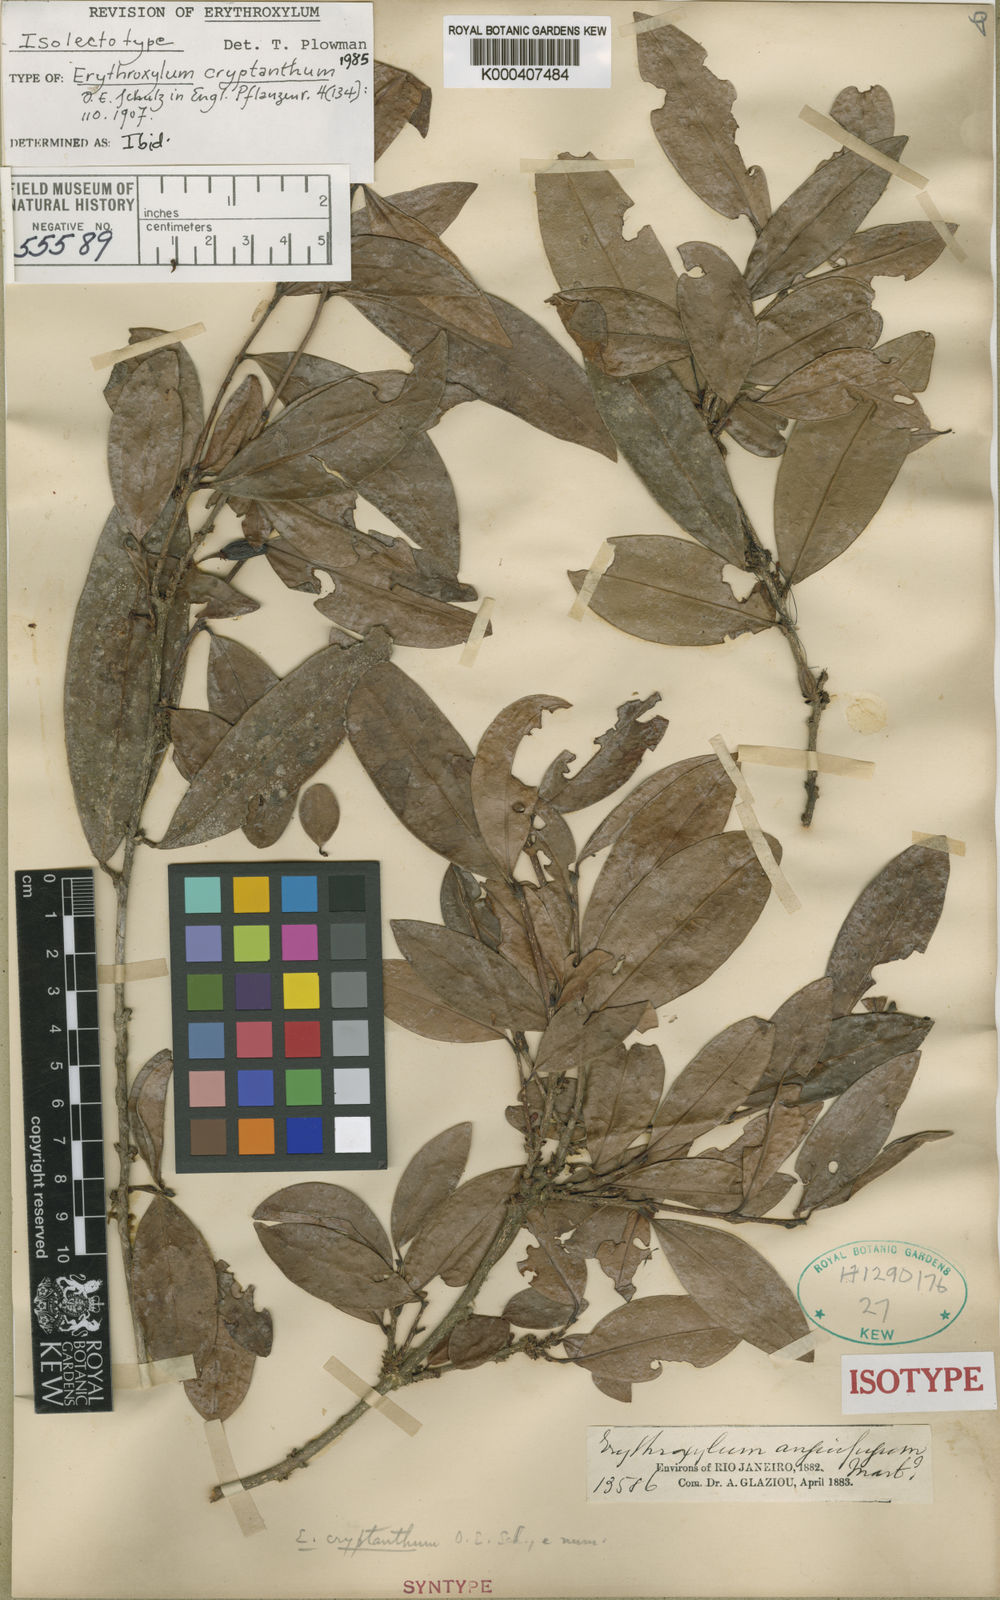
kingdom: Plantae
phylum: Tracheophyta
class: Magnoliopsida
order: Malpighiales
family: Erythroxylaceae
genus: Erythroxylum
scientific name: Erythroxylum cryptanthum
